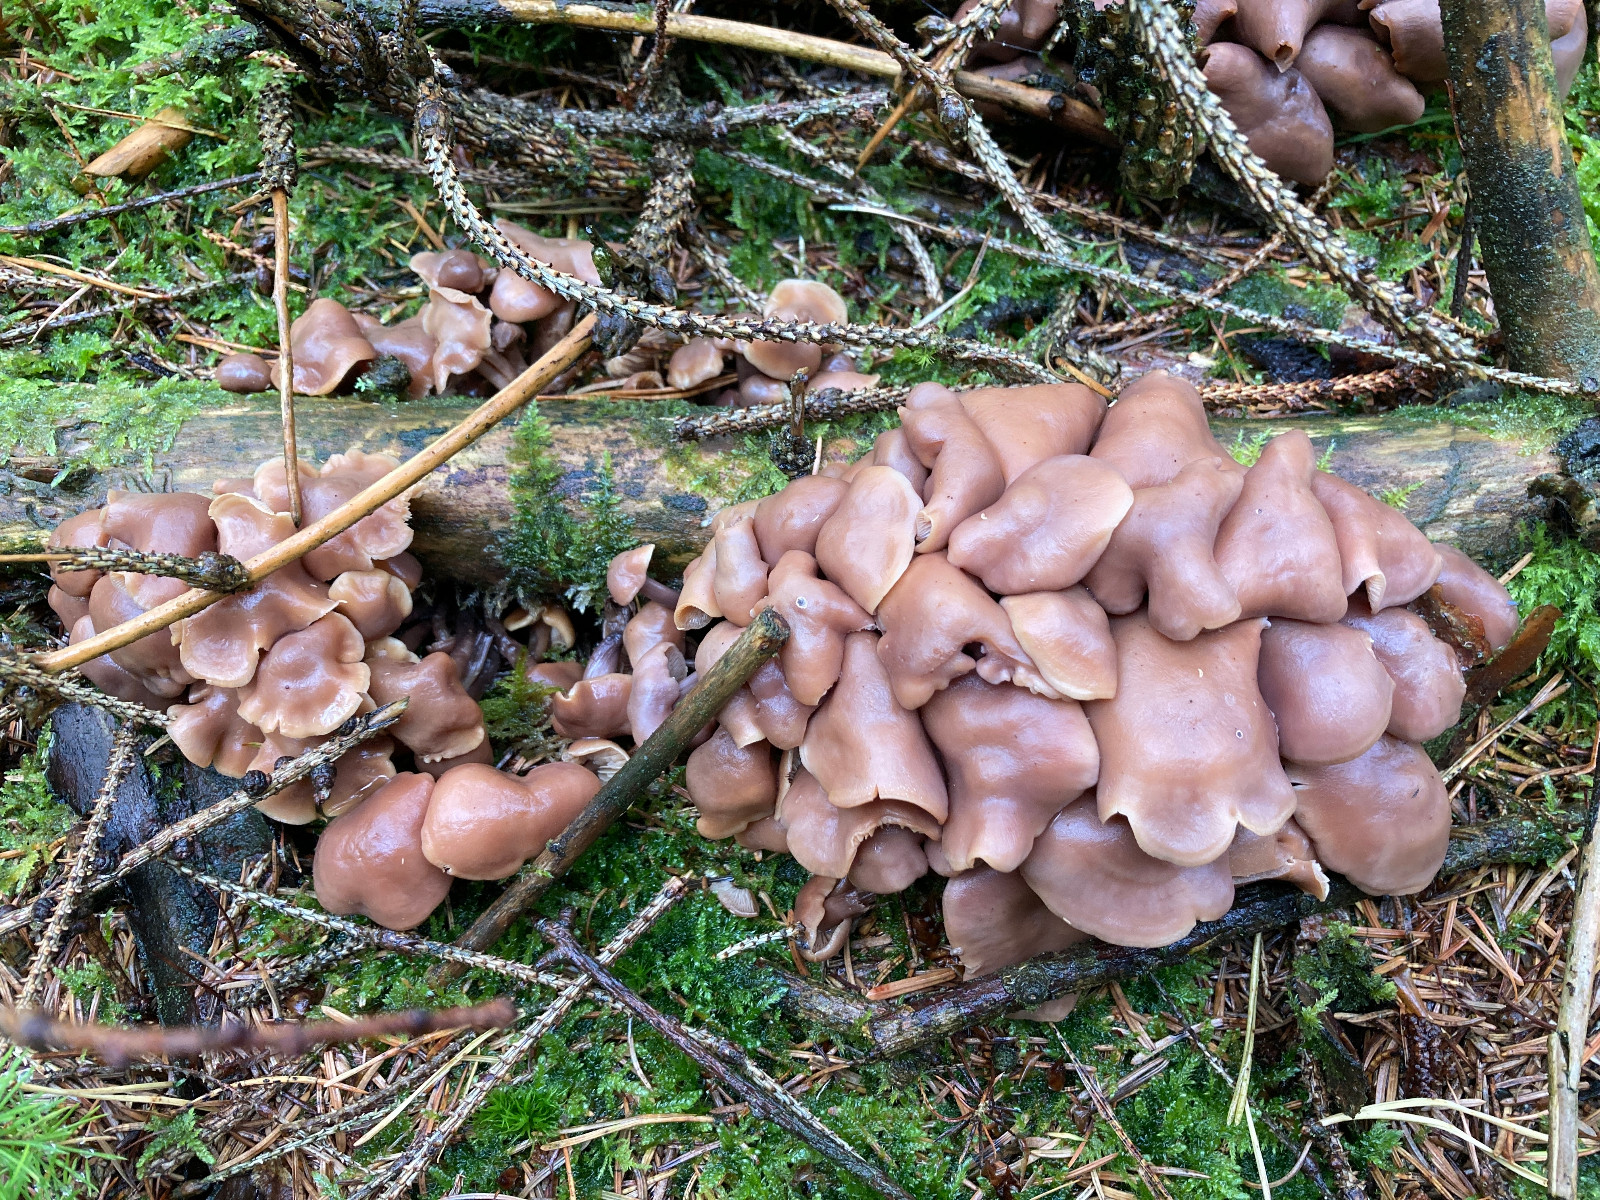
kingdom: Fungi
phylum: Basidiomycota
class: Agaricomycetes
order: Agaricales
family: Omphalotaceae
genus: Connopus
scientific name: Connopus acervatus
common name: tue-fladhat
